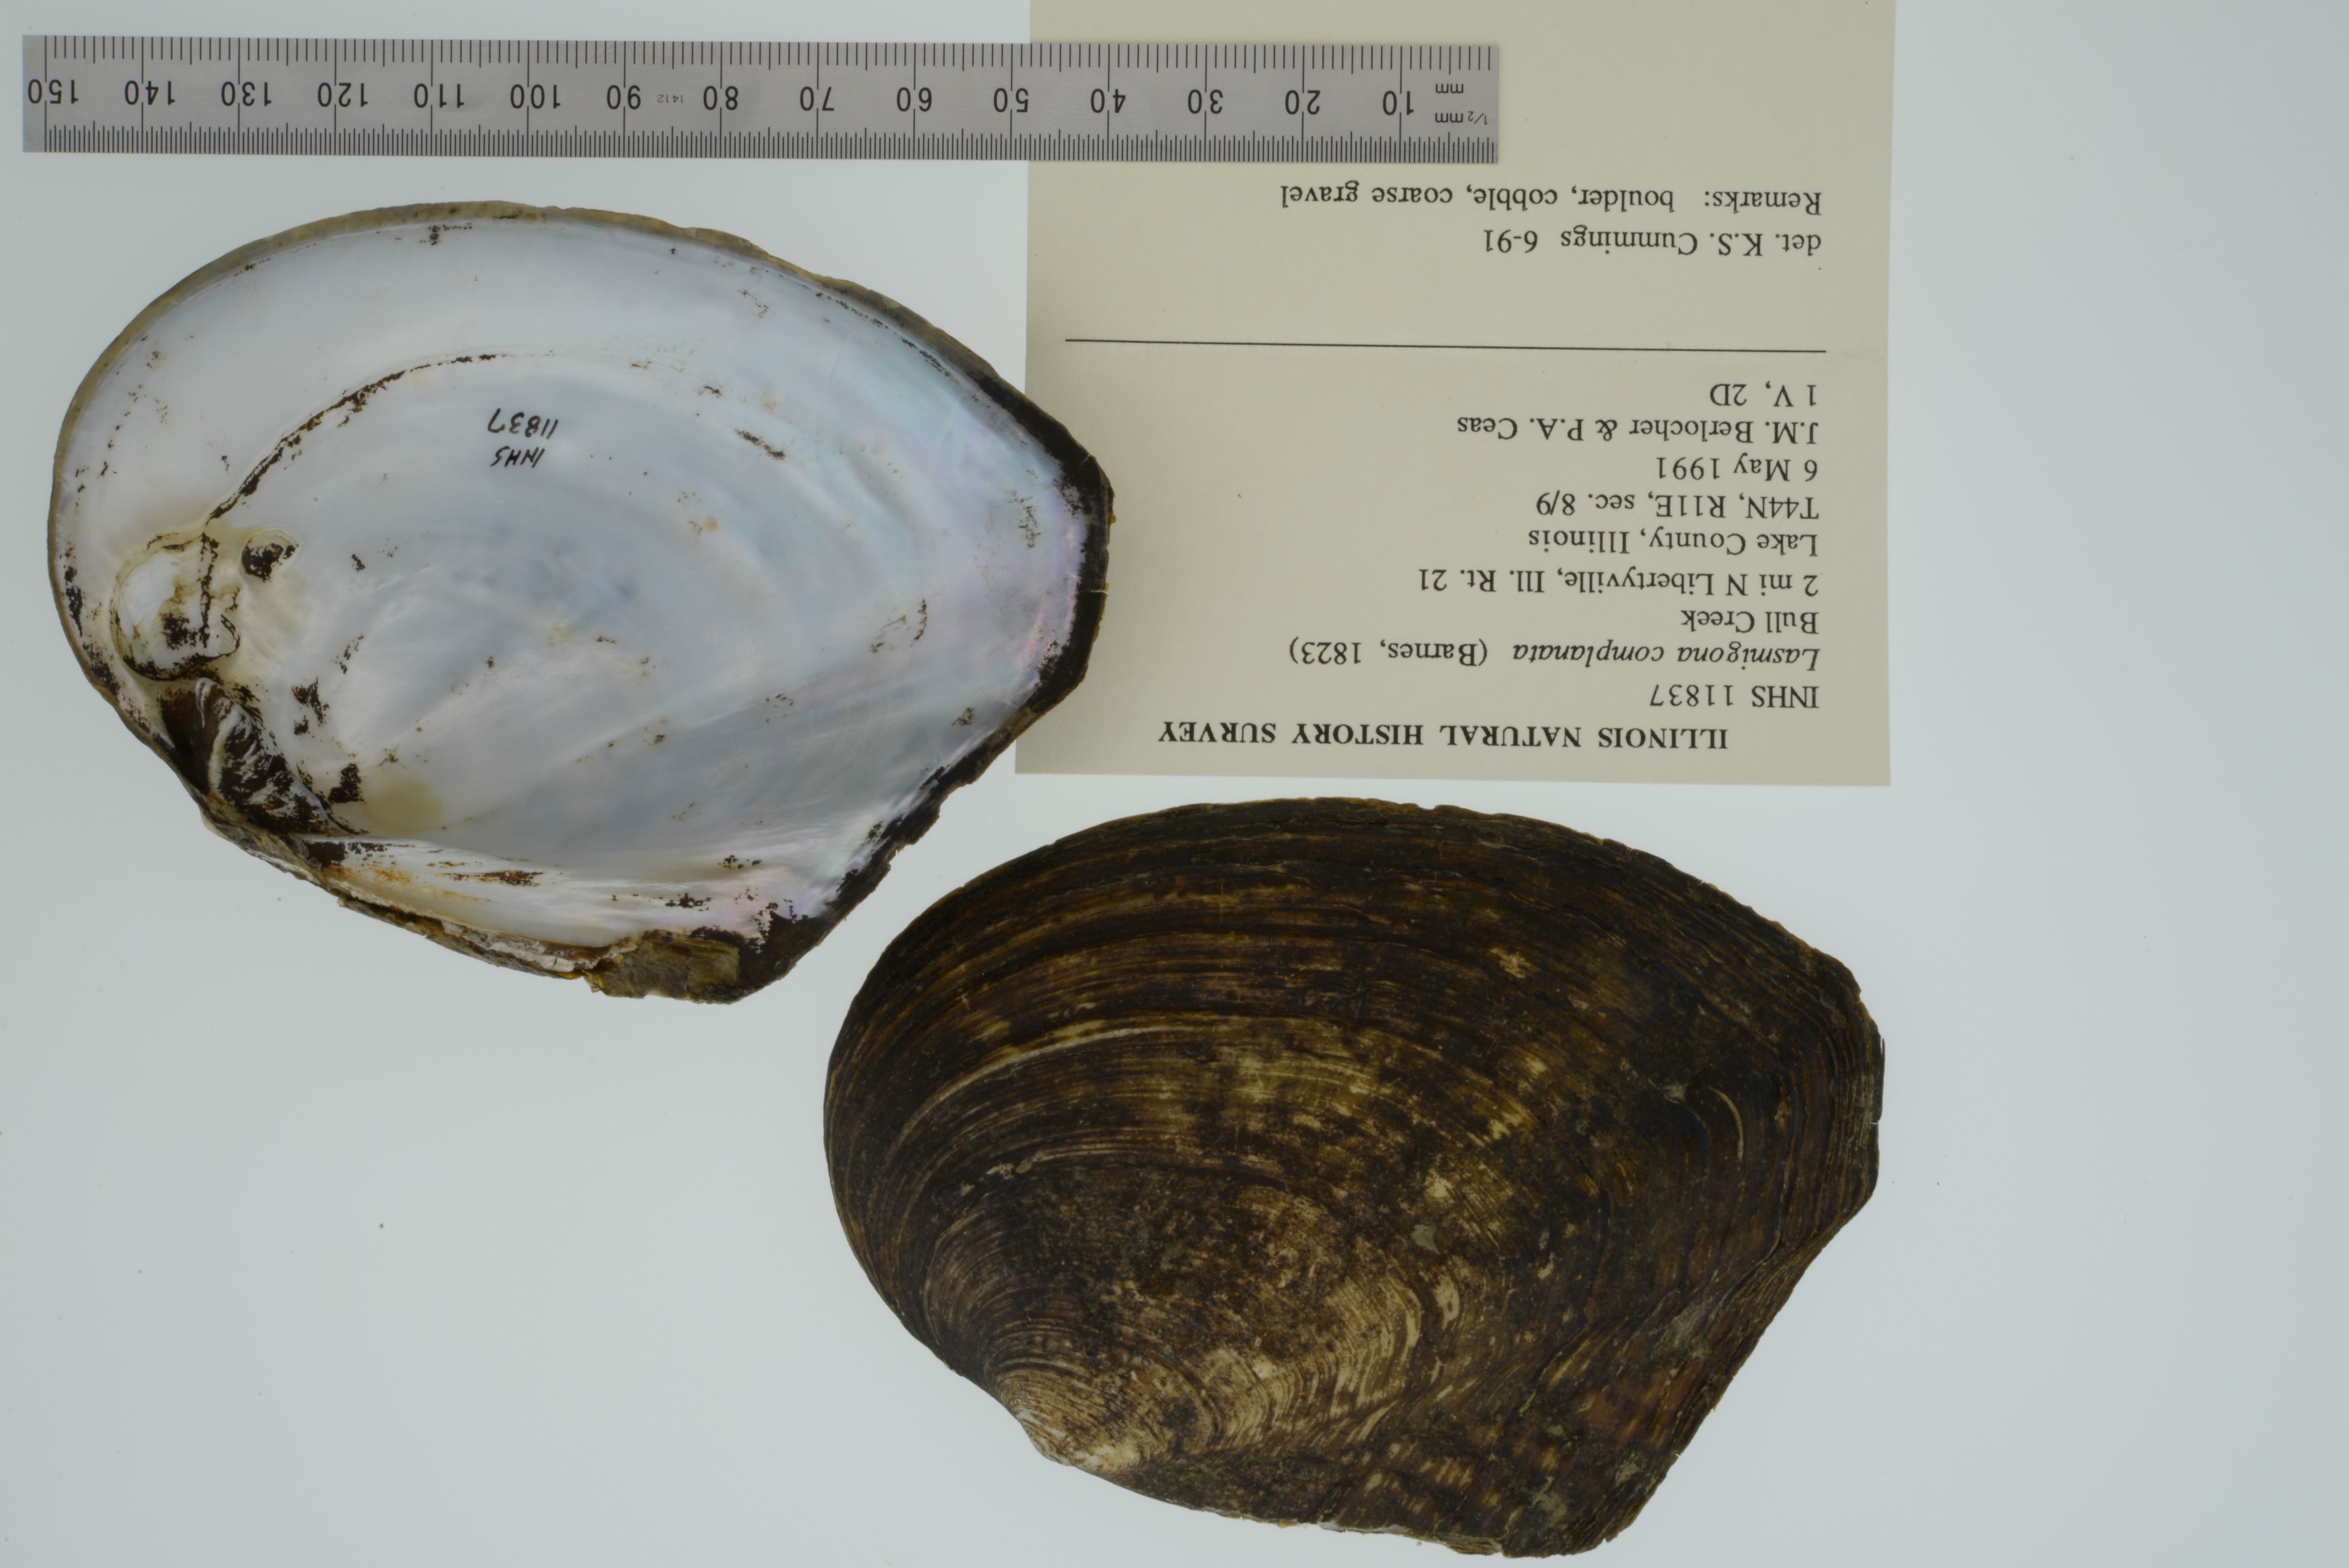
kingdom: Animalia
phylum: Mollusca
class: Bivalvia
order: Unionida
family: Unionidae
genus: Lasmigona
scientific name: Lasmigona complanata
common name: White heelsplitter
